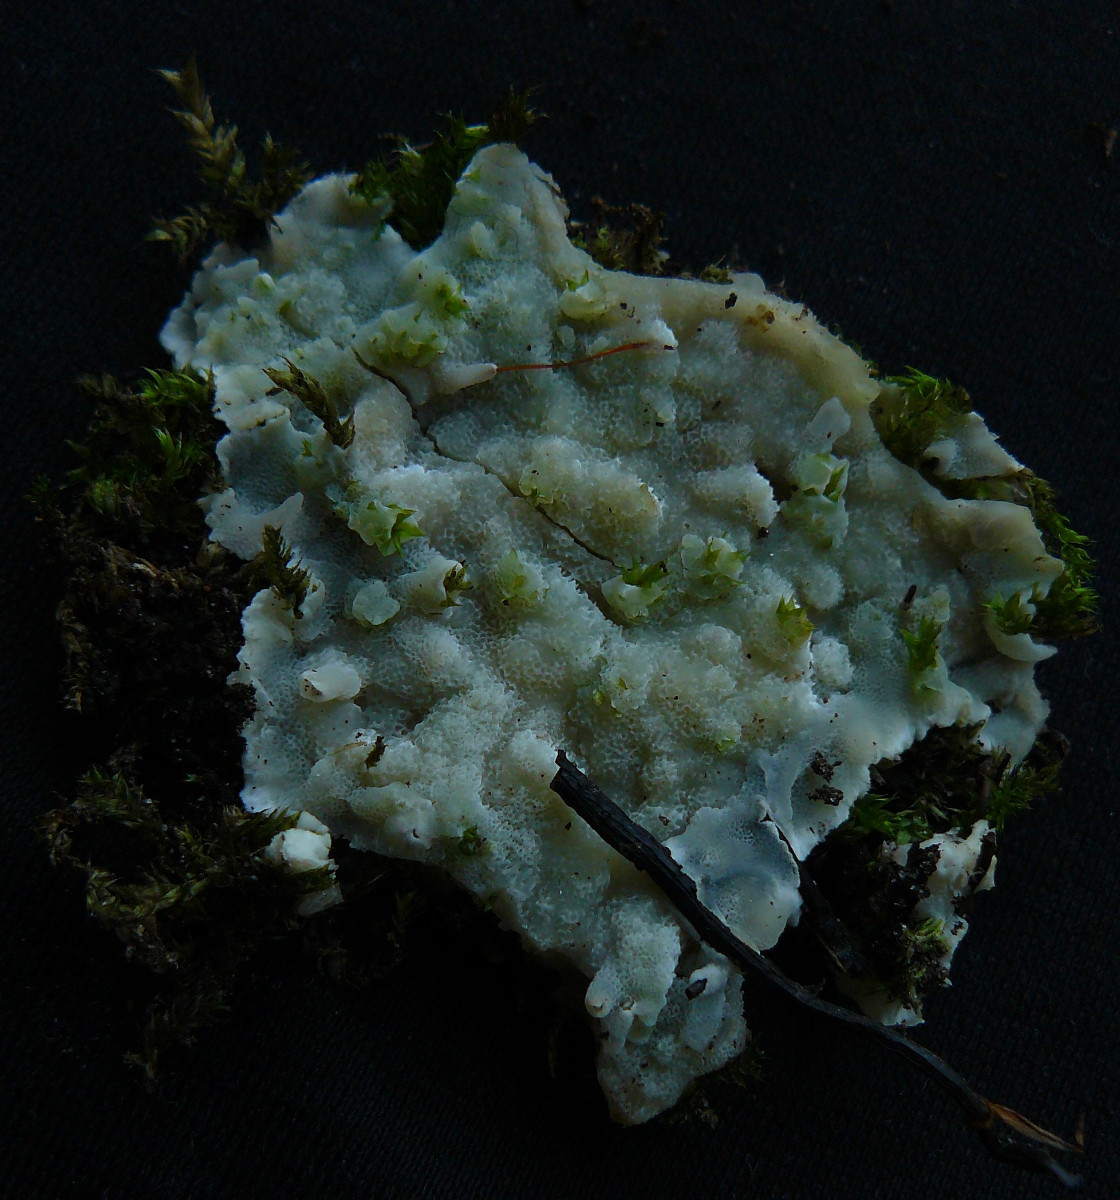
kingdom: Fungi
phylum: Basidiomycota
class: Agaricomycetes
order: Polyporales
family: Meruliaceae
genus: Physisporinus
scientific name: Physisporinus vitreus
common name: mastesvamp
